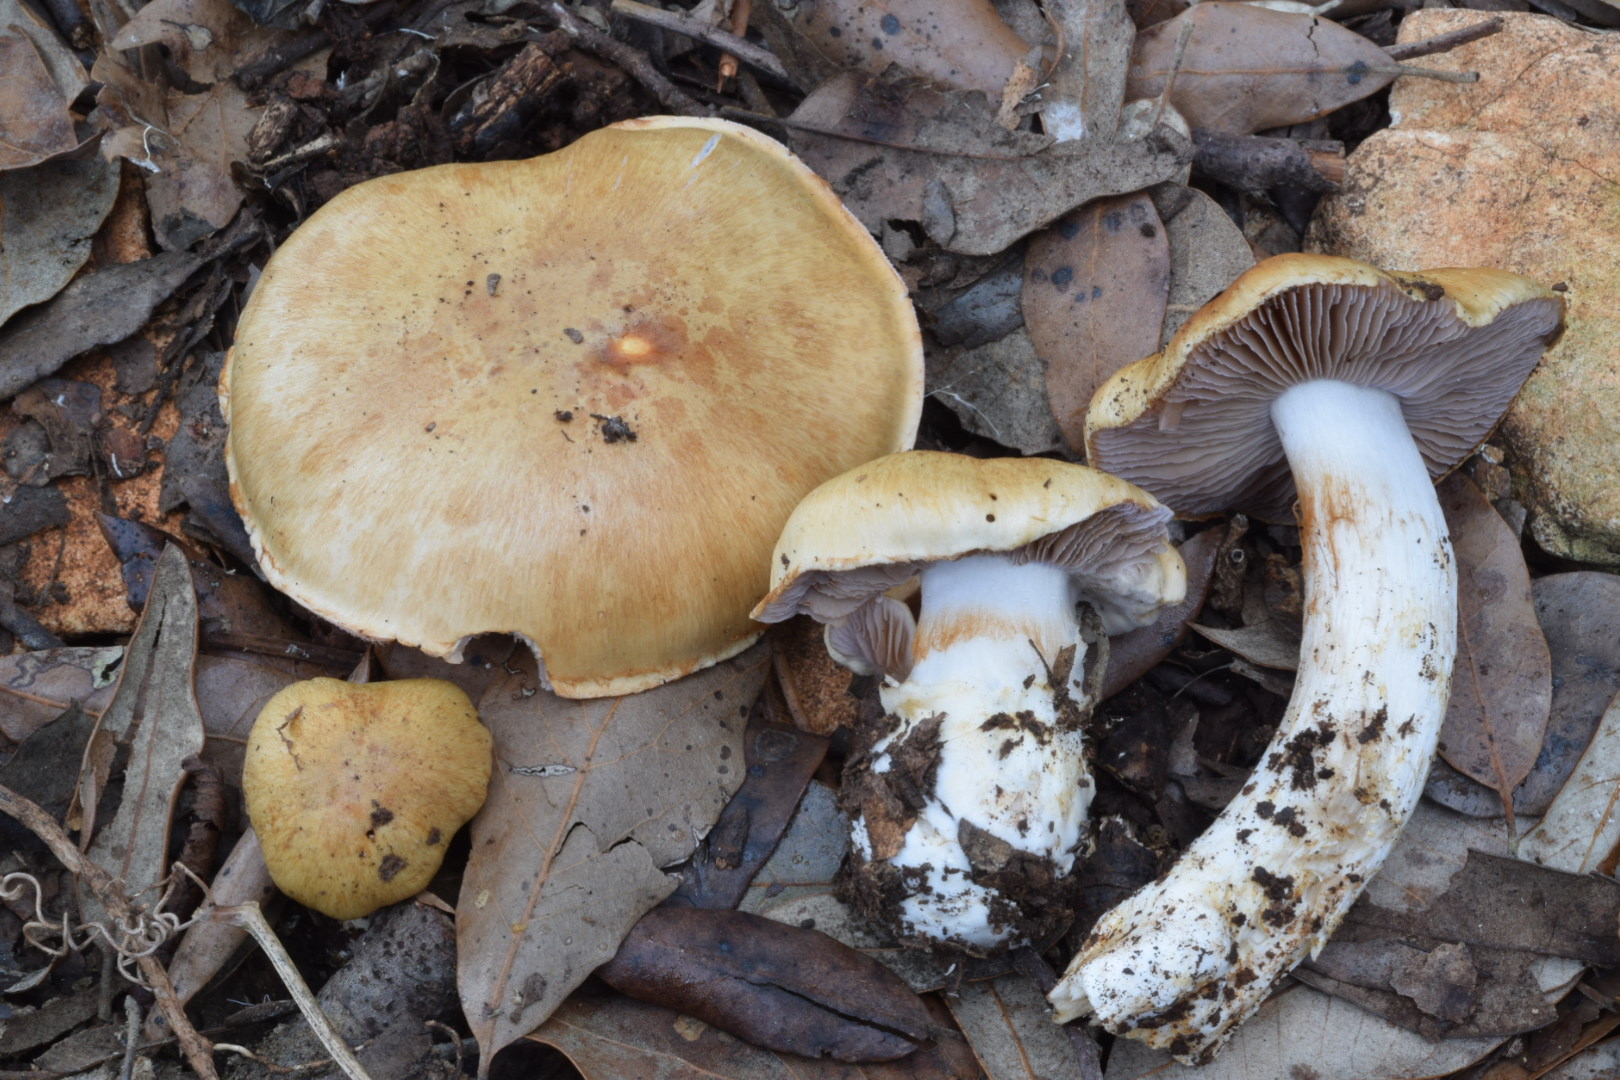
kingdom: Fungi
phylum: Basidiomycota
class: Agaricomycetes
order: Agaricales
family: Cortinariaceae
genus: Phlegmacium
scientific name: Phlegmacium variiforme
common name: løvengs-slørhat
